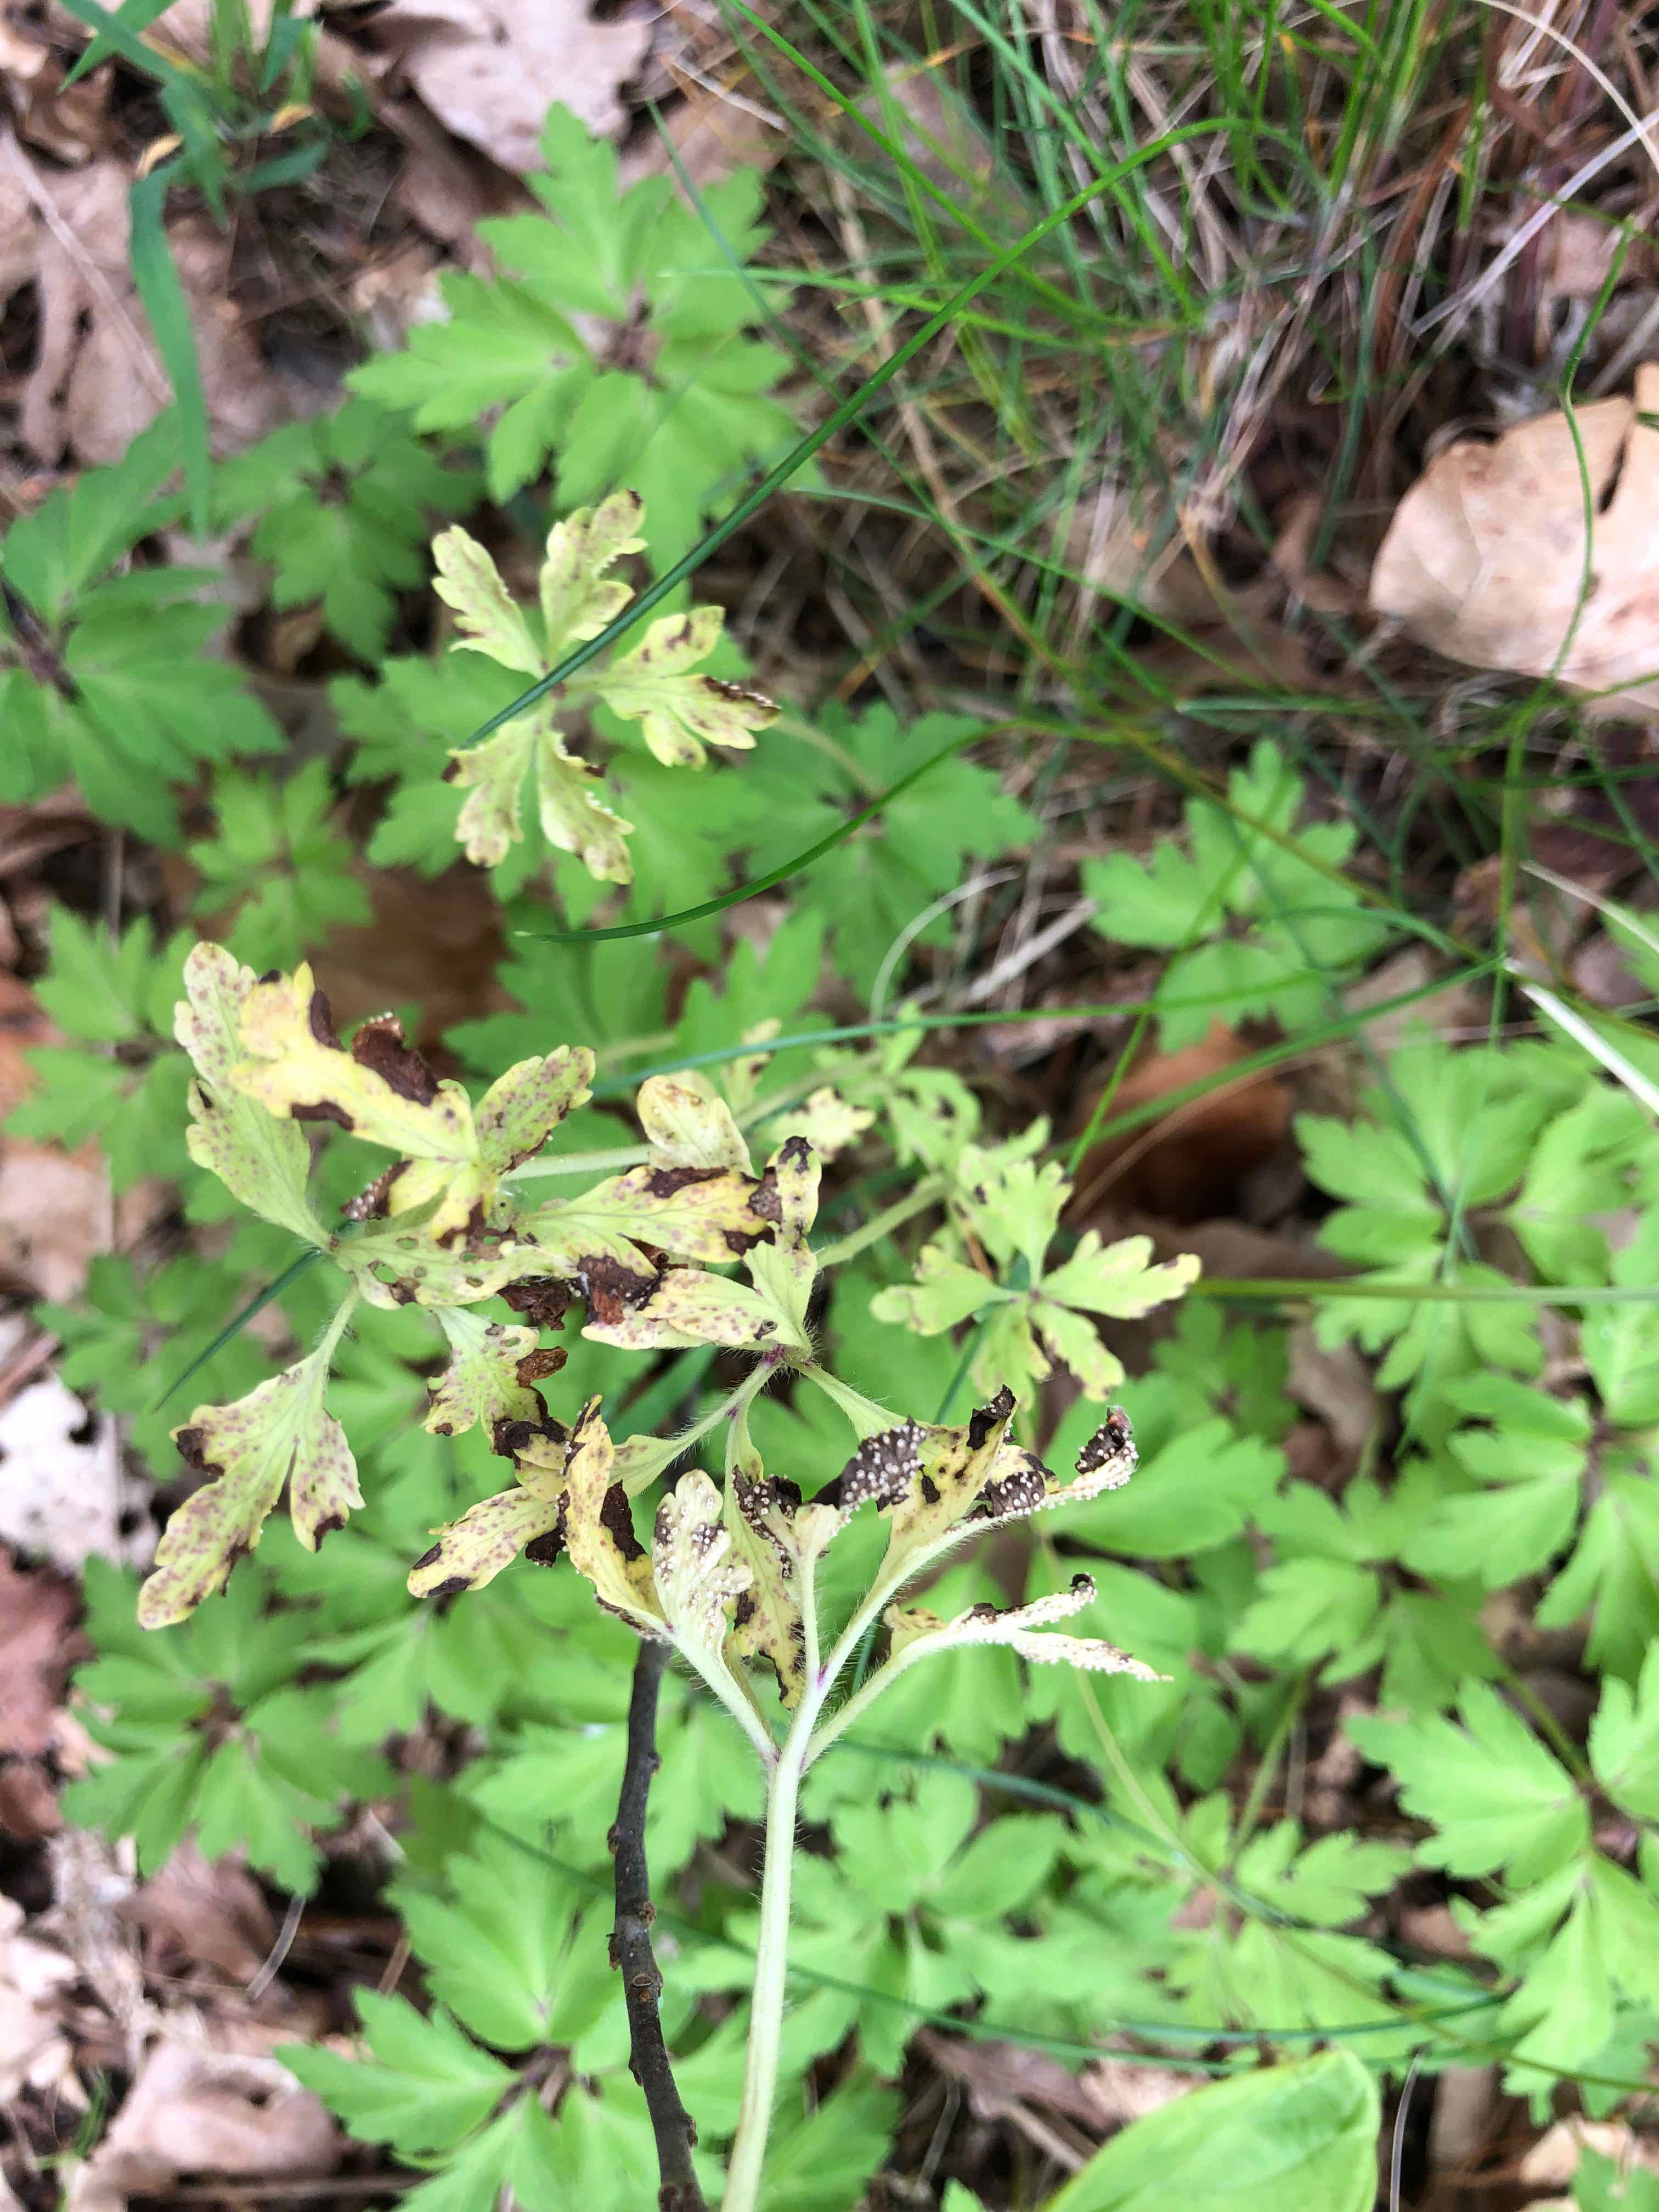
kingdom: Fungi
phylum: Basidiomycota
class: Ustilaginomycetes
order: Urocystidales
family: Urocystidaceae
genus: Urocystis
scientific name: Urocystis anemones
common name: anemone-brand
